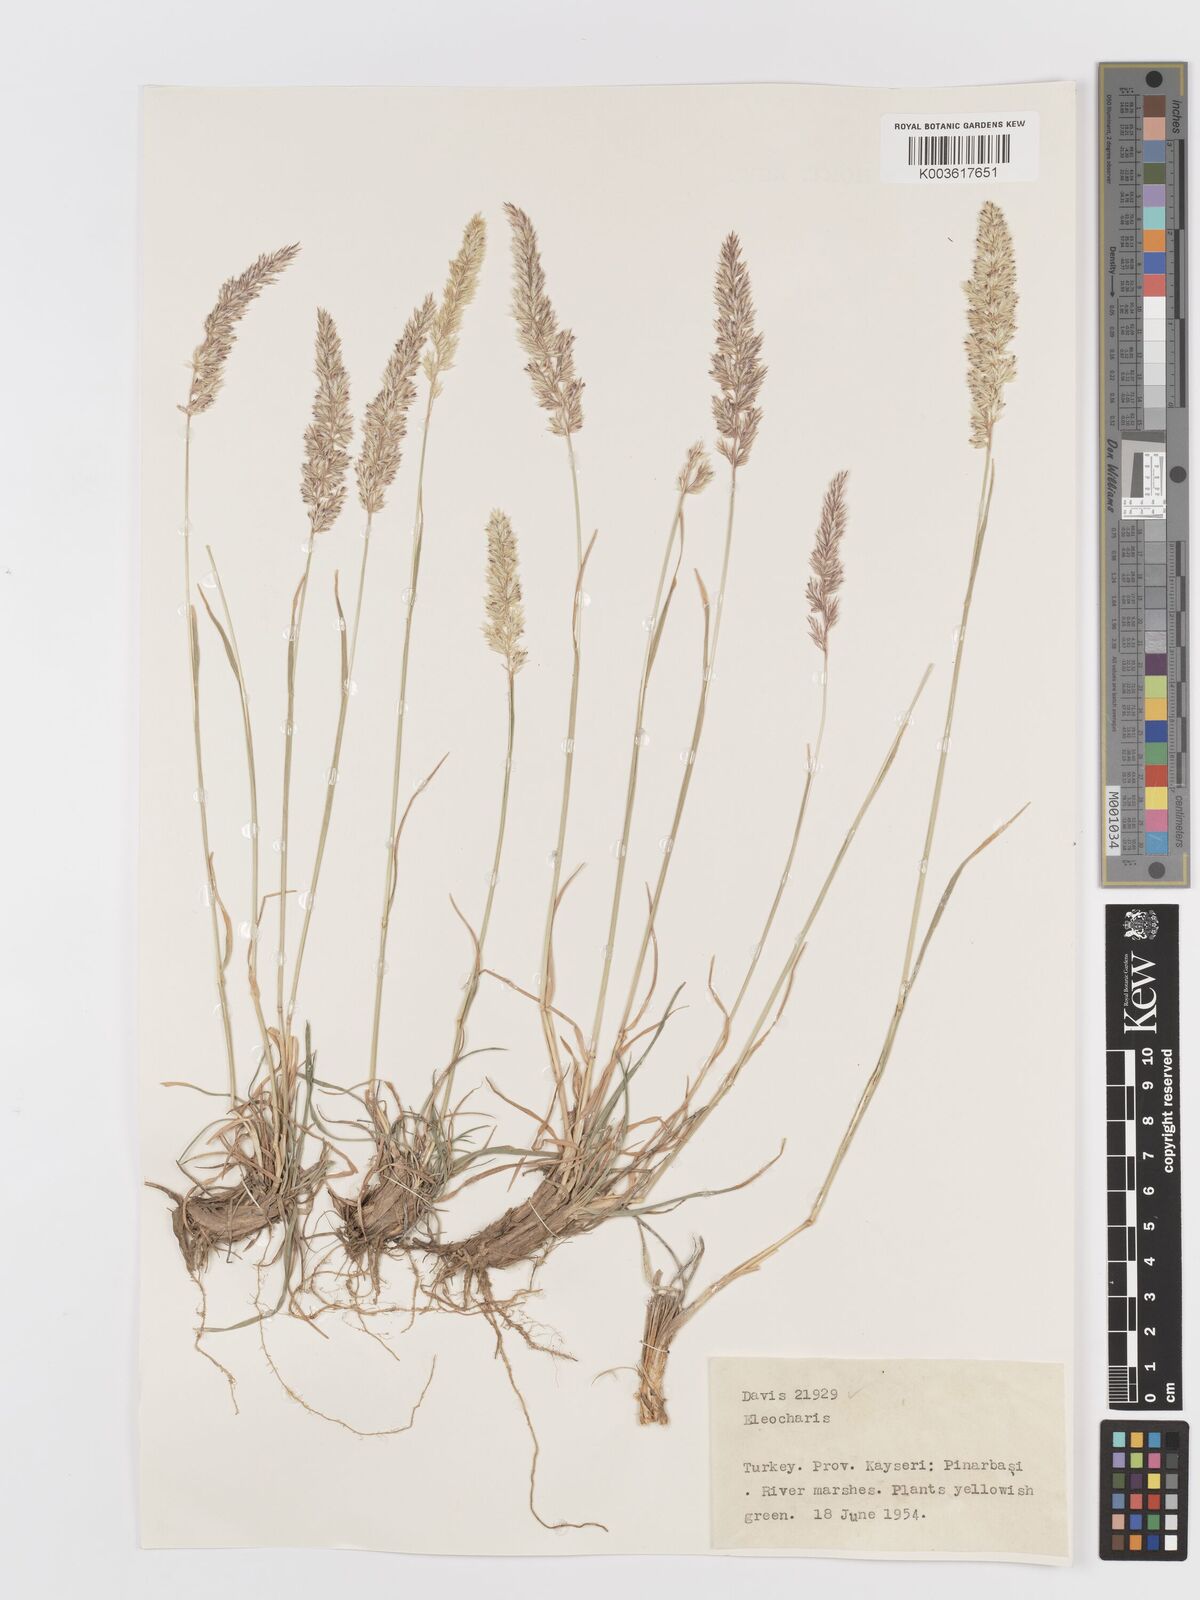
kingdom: Plantae
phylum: Tracheophyta
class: Liliopsida
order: Poales
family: Poaceae
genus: Koeleria
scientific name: Koeleria
